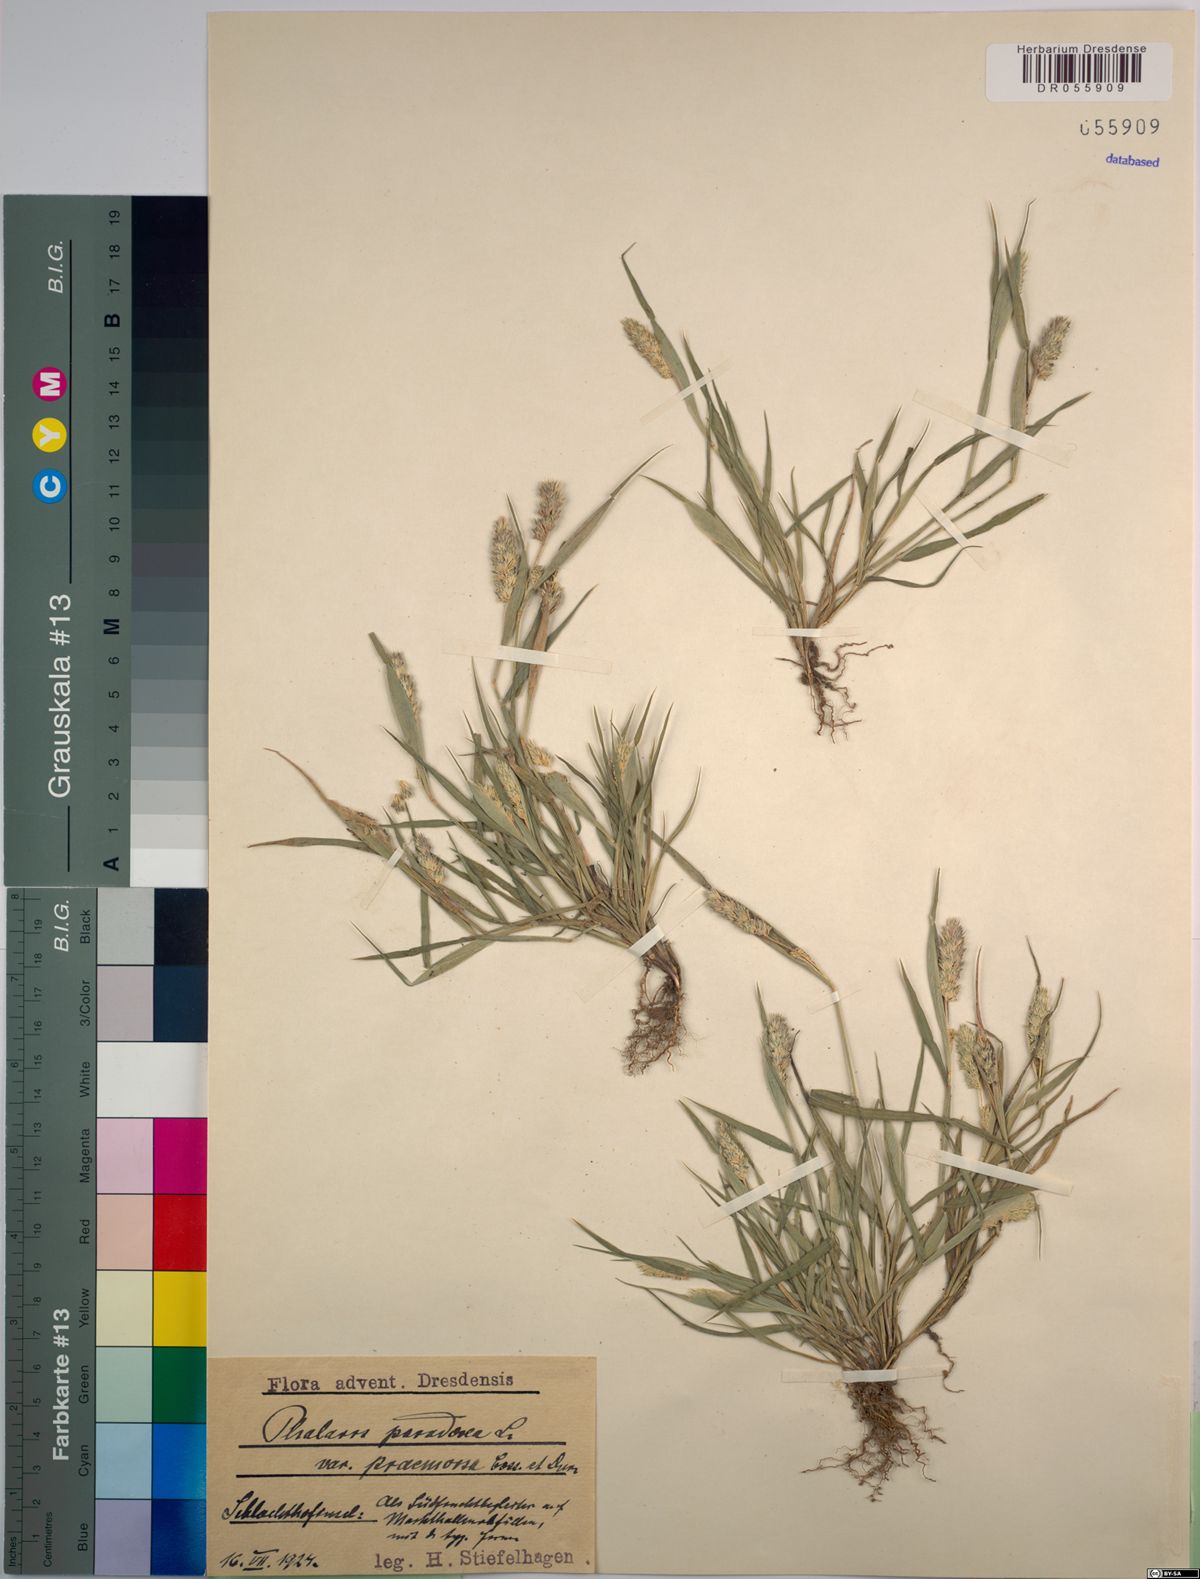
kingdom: Plantae
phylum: Tracheophyta
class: Liliopsida
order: Poales
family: Poaceae
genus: Phalaris
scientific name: Phalaris paradoxa
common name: Awned canary-grass
